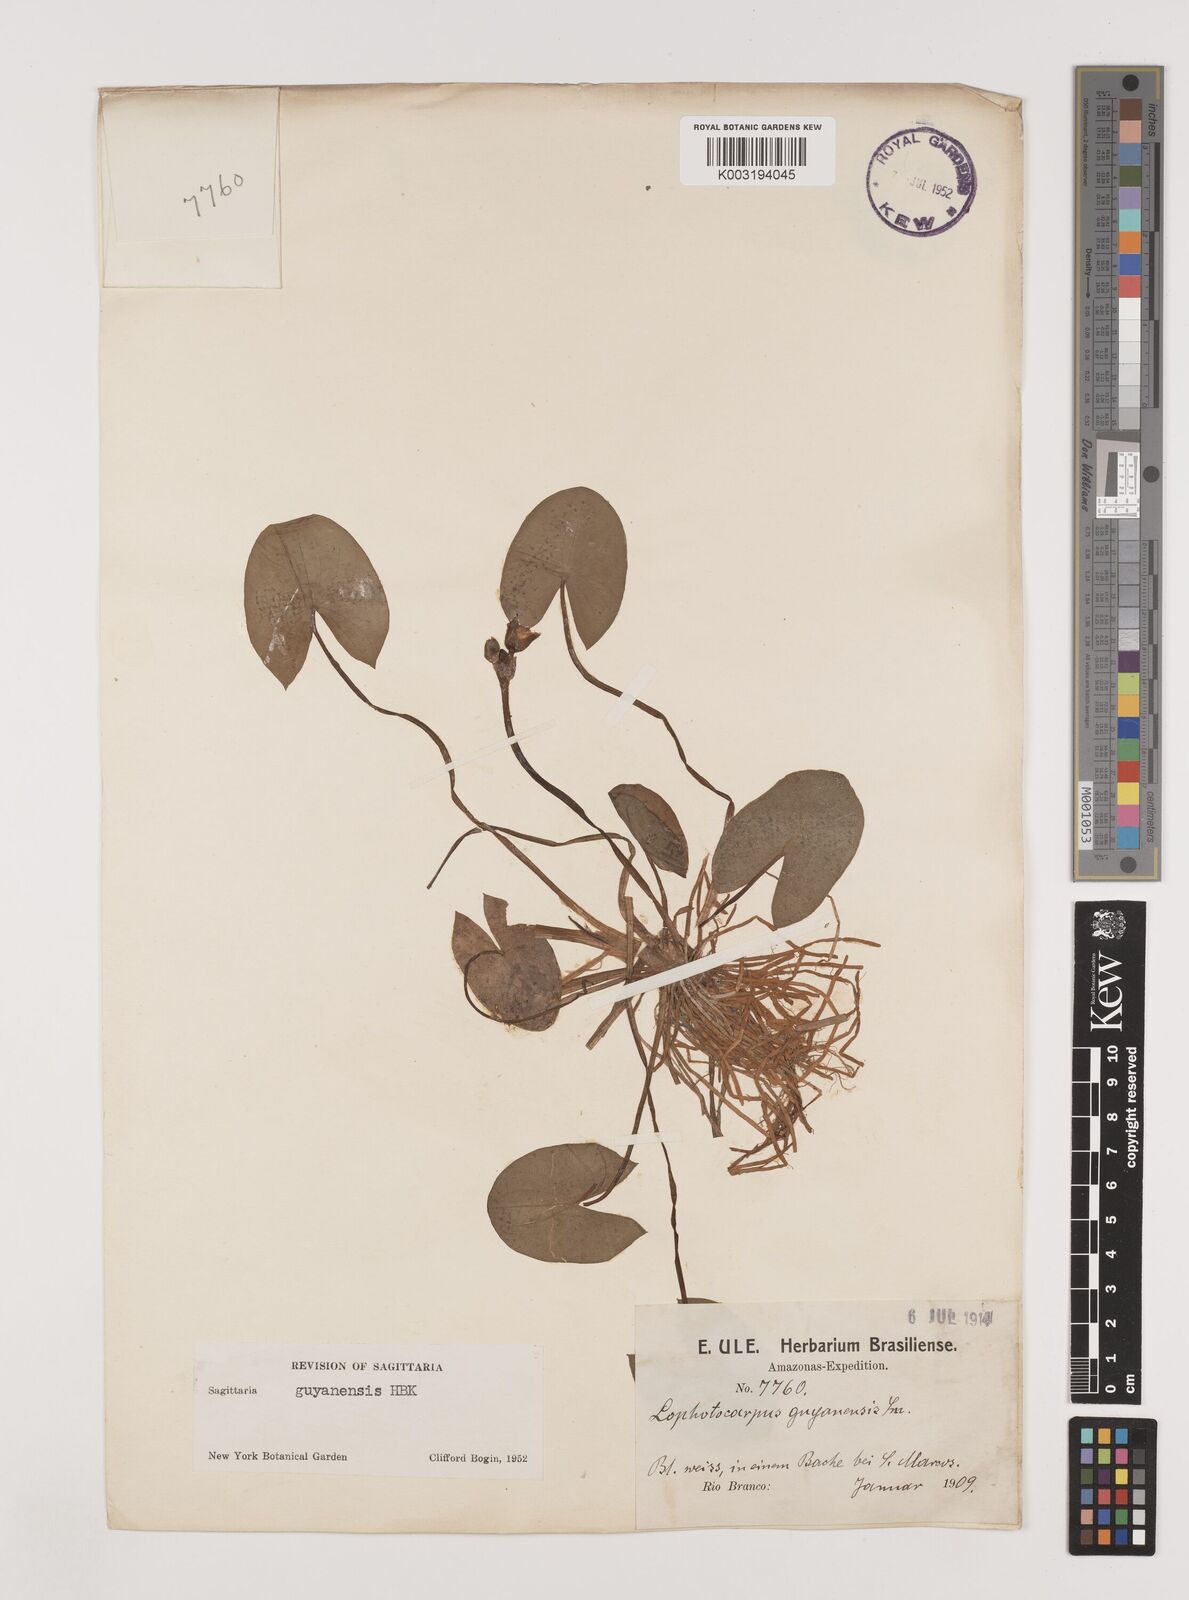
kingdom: Plantae
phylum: Tracheophyta
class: Liliopsida
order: Alismatales
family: Alismataceae
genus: Sagittaria
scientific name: Sagittaria guayanensis
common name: Guyanese arrowhead
